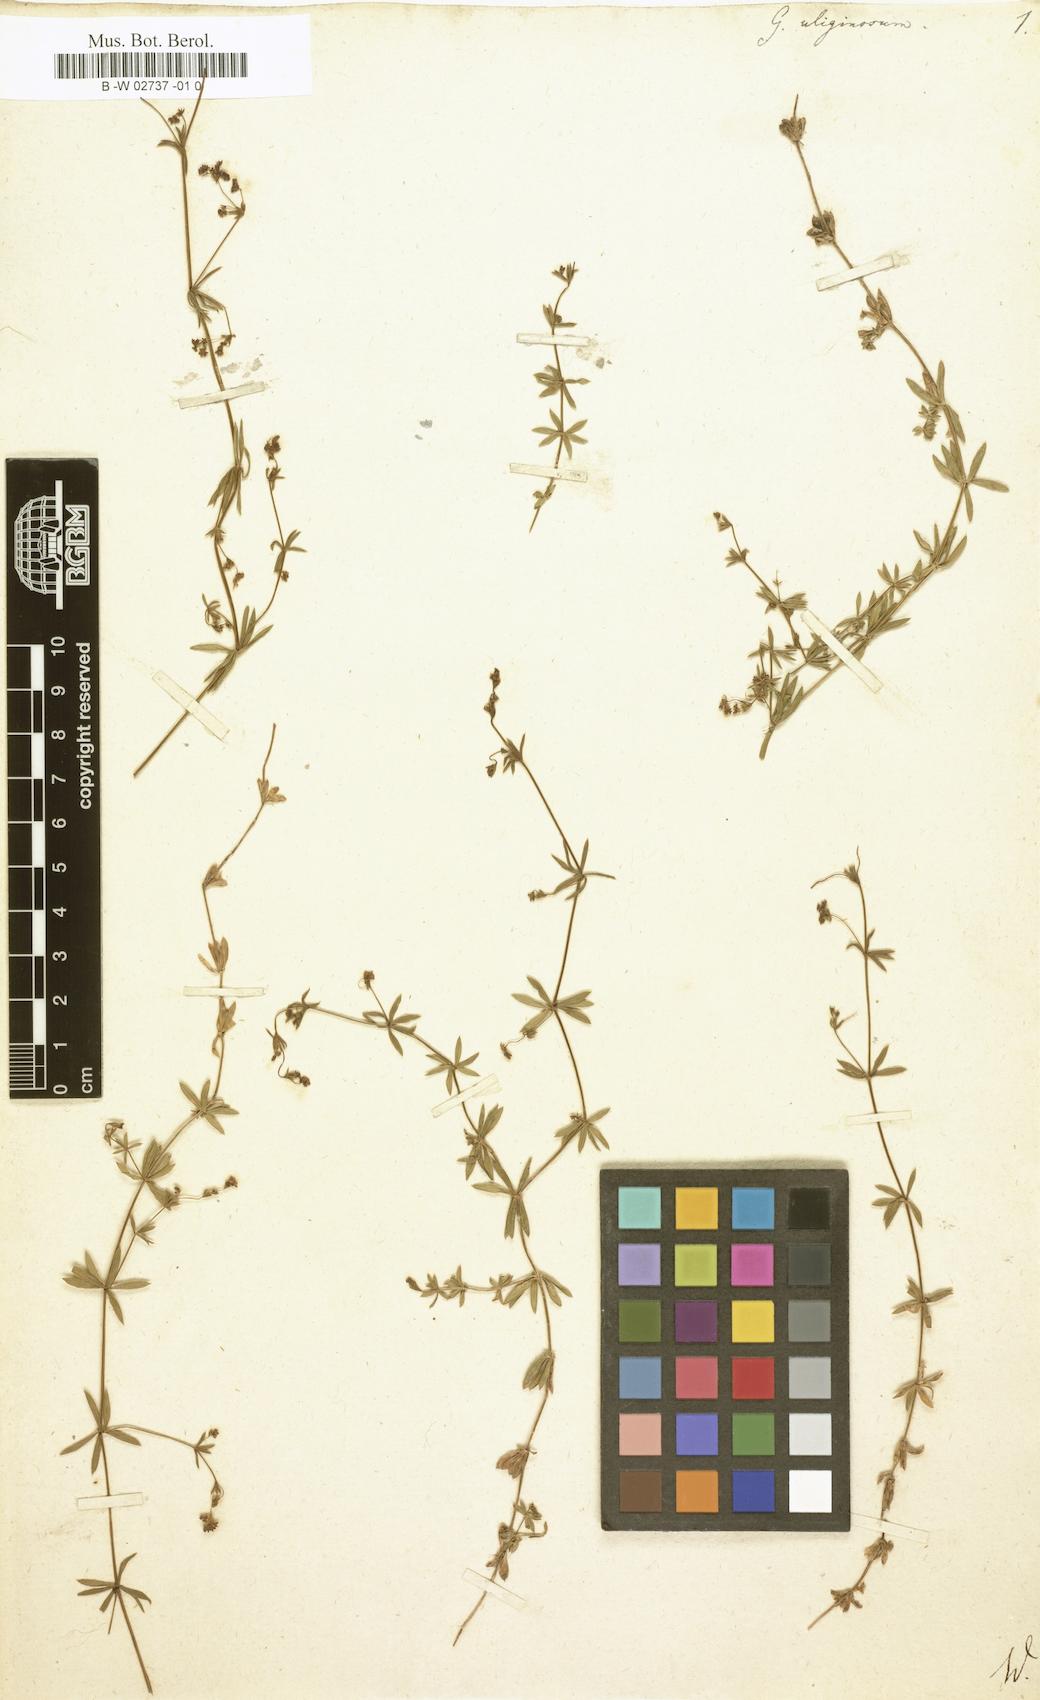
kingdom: Plantae
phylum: Tracheophyta
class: Magnoliopsida
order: Gentianales
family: Rubiaceae
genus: Galium
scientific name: Galium uliginosum
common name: Fen bedstraw
